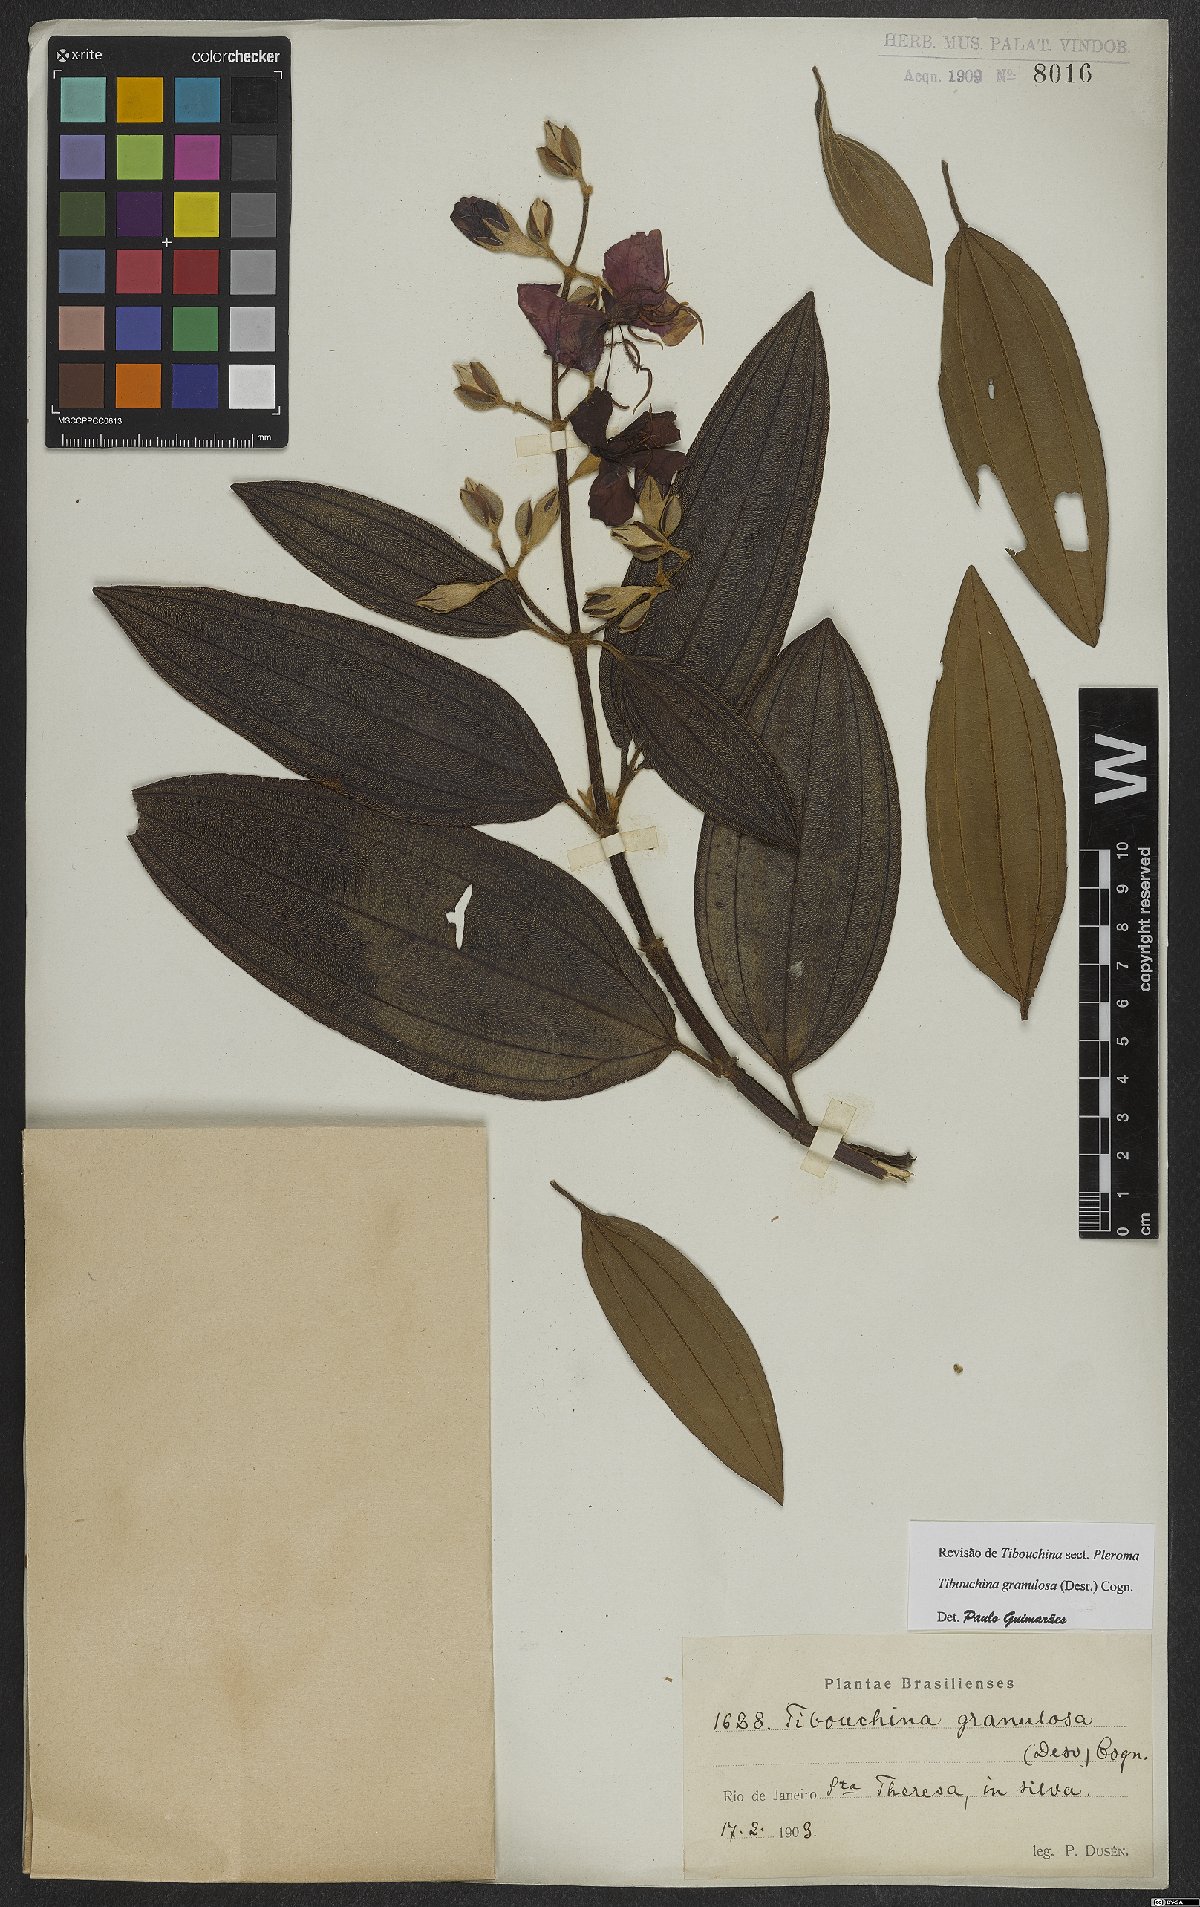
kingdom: Plantae
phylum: Tracheophyta
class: Magnoliopsida
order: Myrtales
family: Melastomataceae
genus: Pleroma
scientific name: Pleroma granulosum
